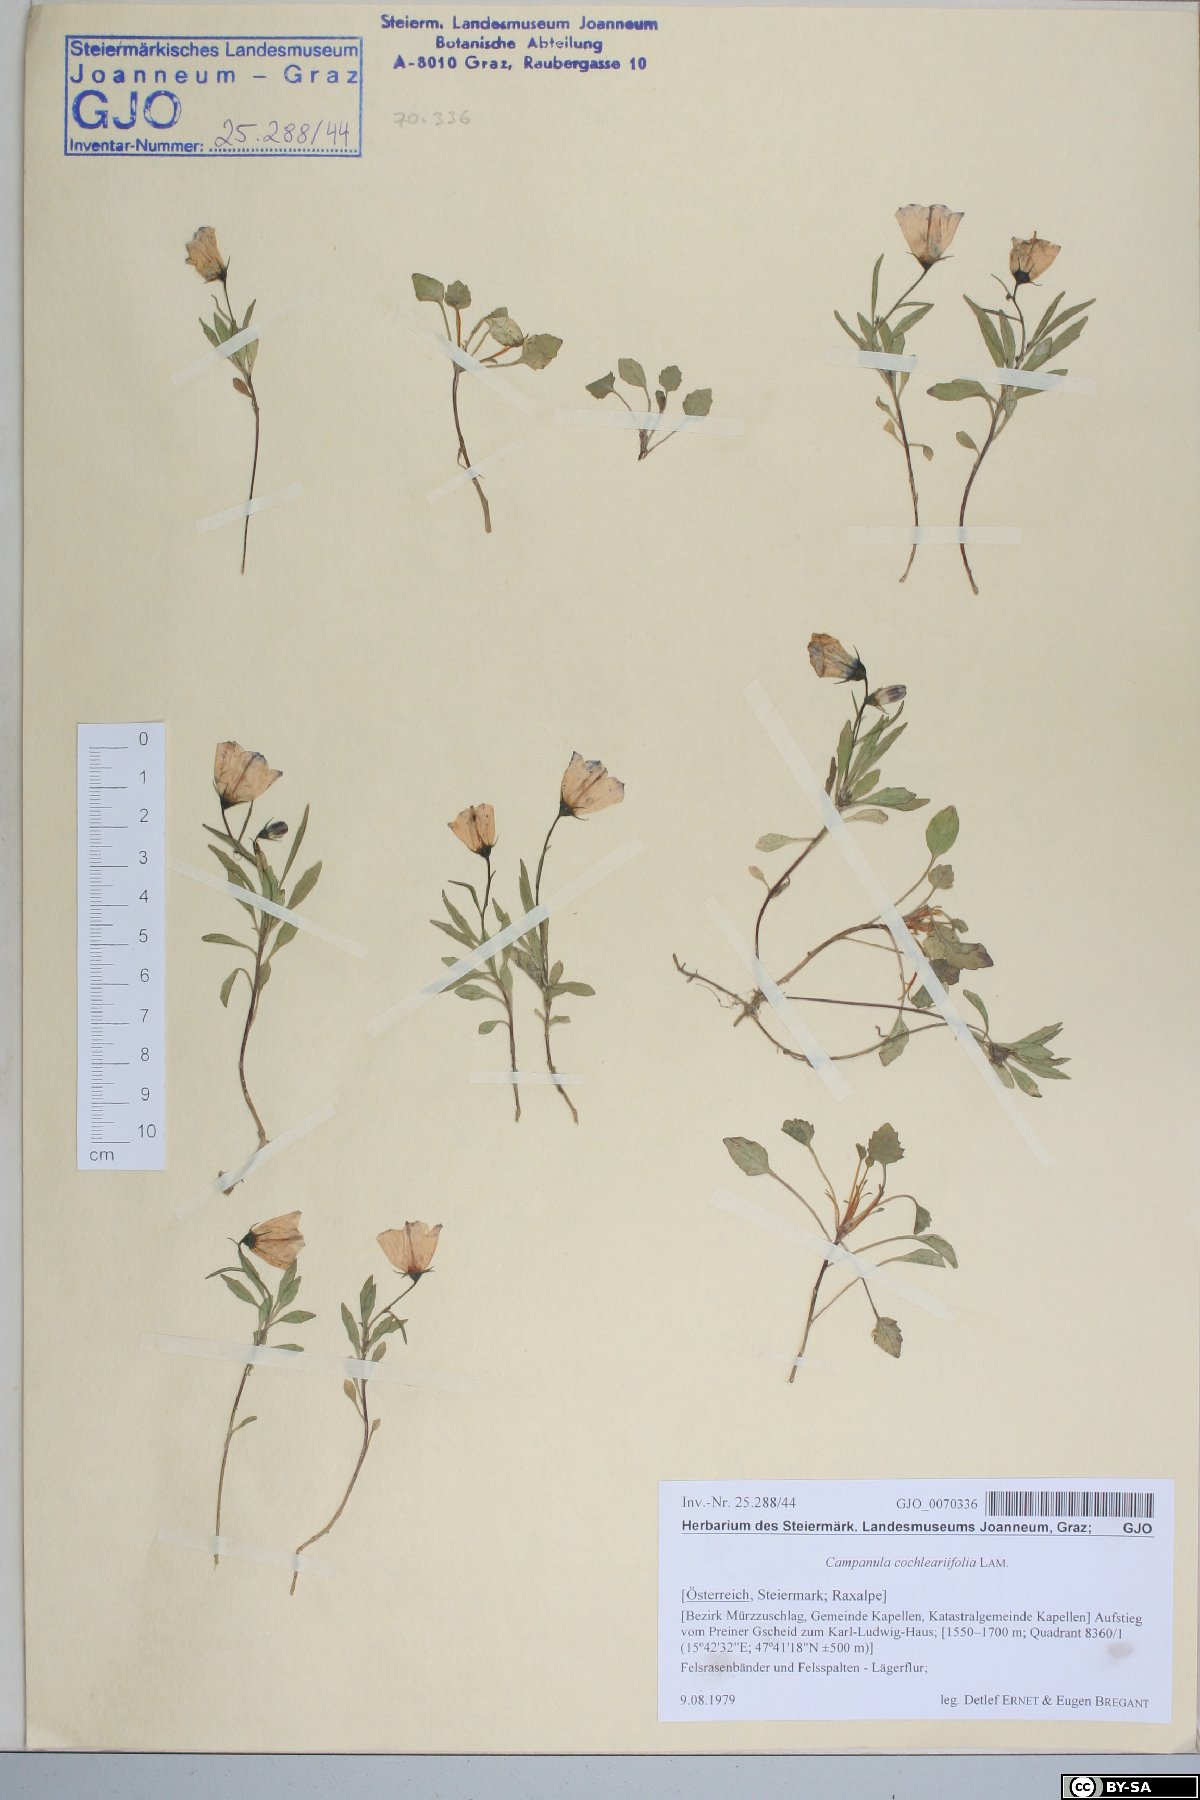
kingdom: Plantae
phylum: Tracheophyta
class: Magnoliopsida
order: Asterales
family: Campanulaceae
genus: Campanula
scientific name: Campanula cochleariifolia
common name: Fairies'-thimbles
